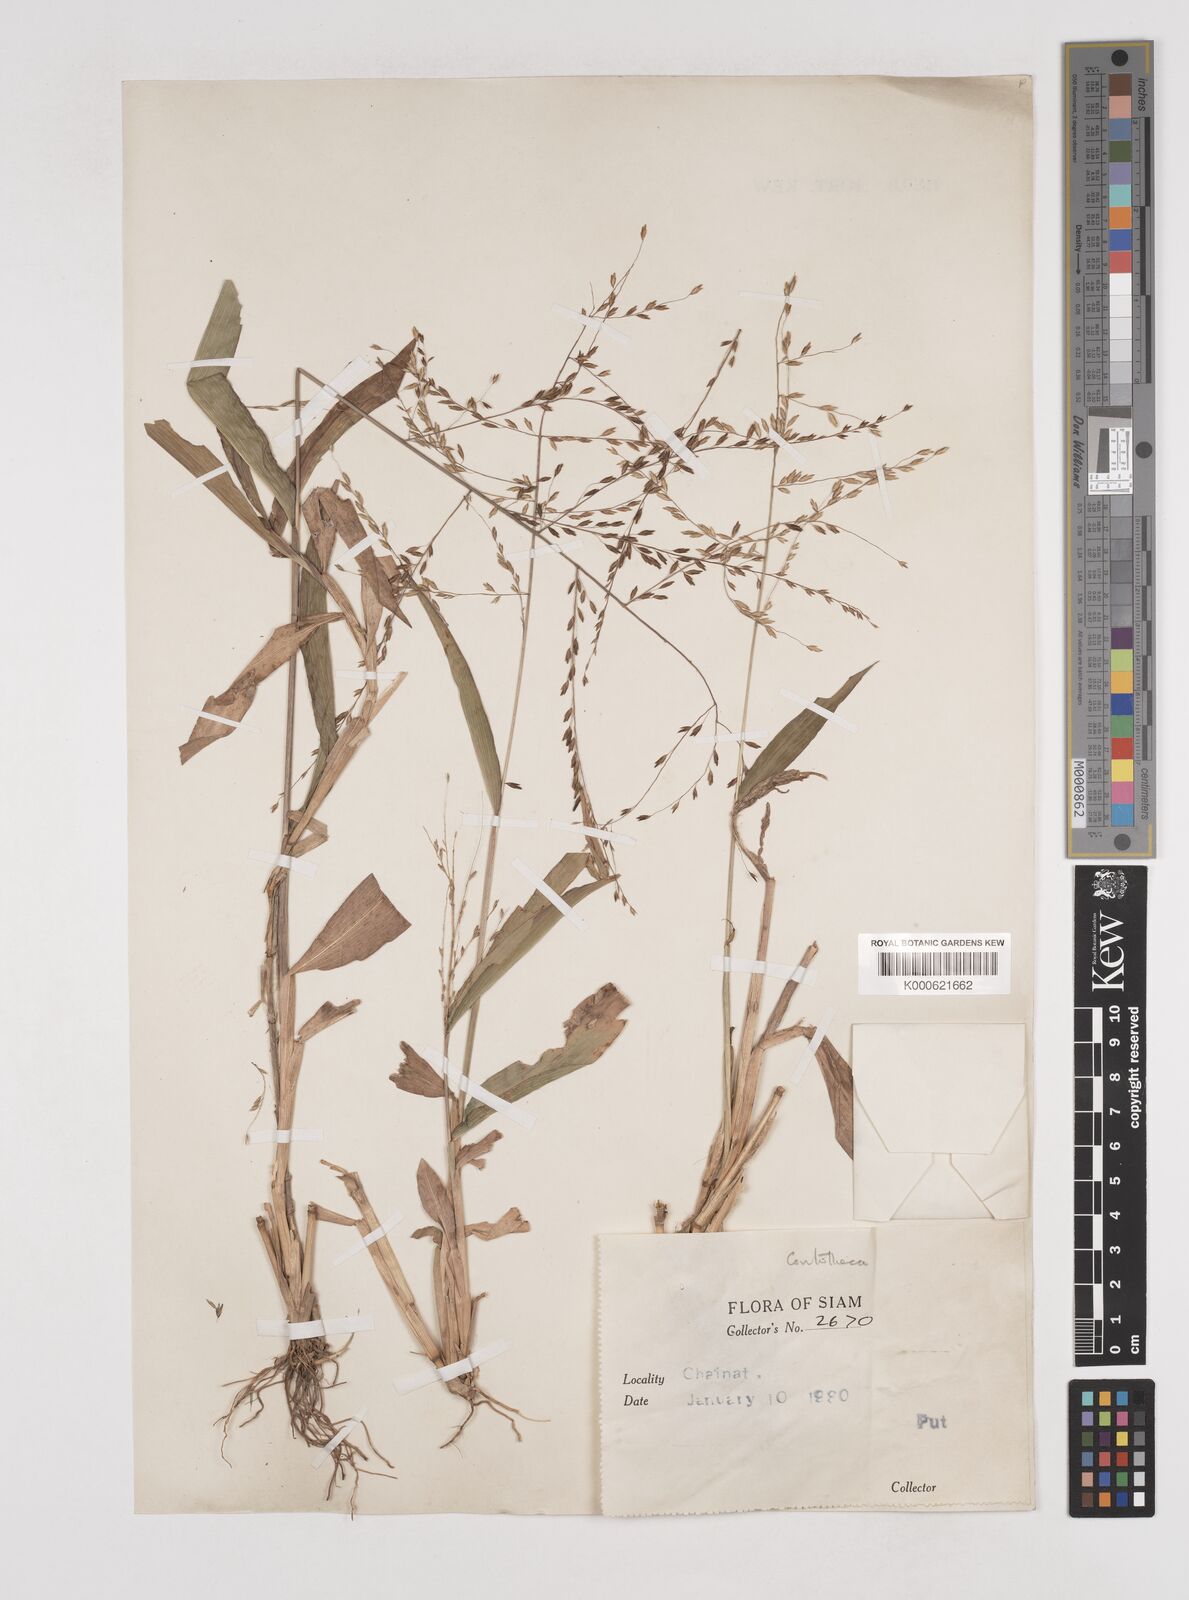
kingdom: Plantae
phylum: Tracheophyta
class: Liliopsida
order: Poales
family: Poaceae
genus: Centotheca
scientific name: Centotheca lappacea
